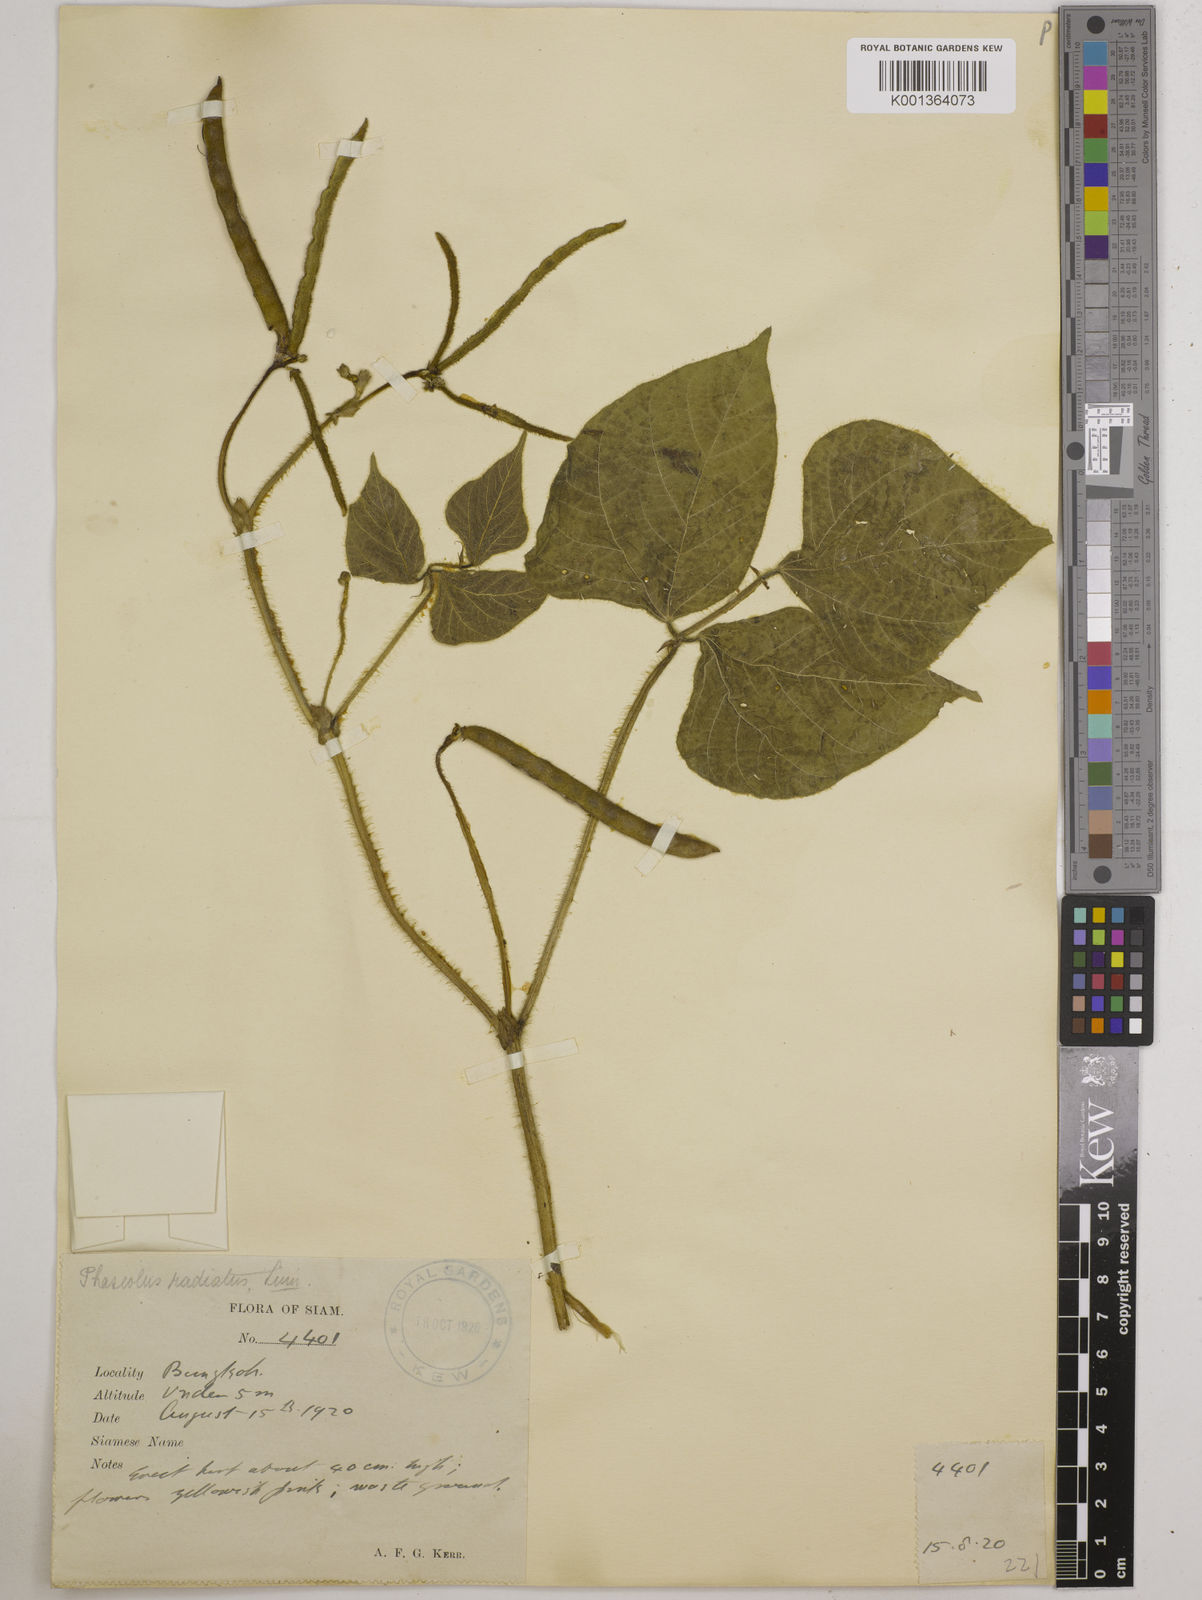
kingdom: Plantae
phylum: Tracheophyta
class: Magnoliopsida
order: Fabales
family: Fabaceae
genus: Vigna
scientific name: Vigna radiata
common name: Mung-bean
